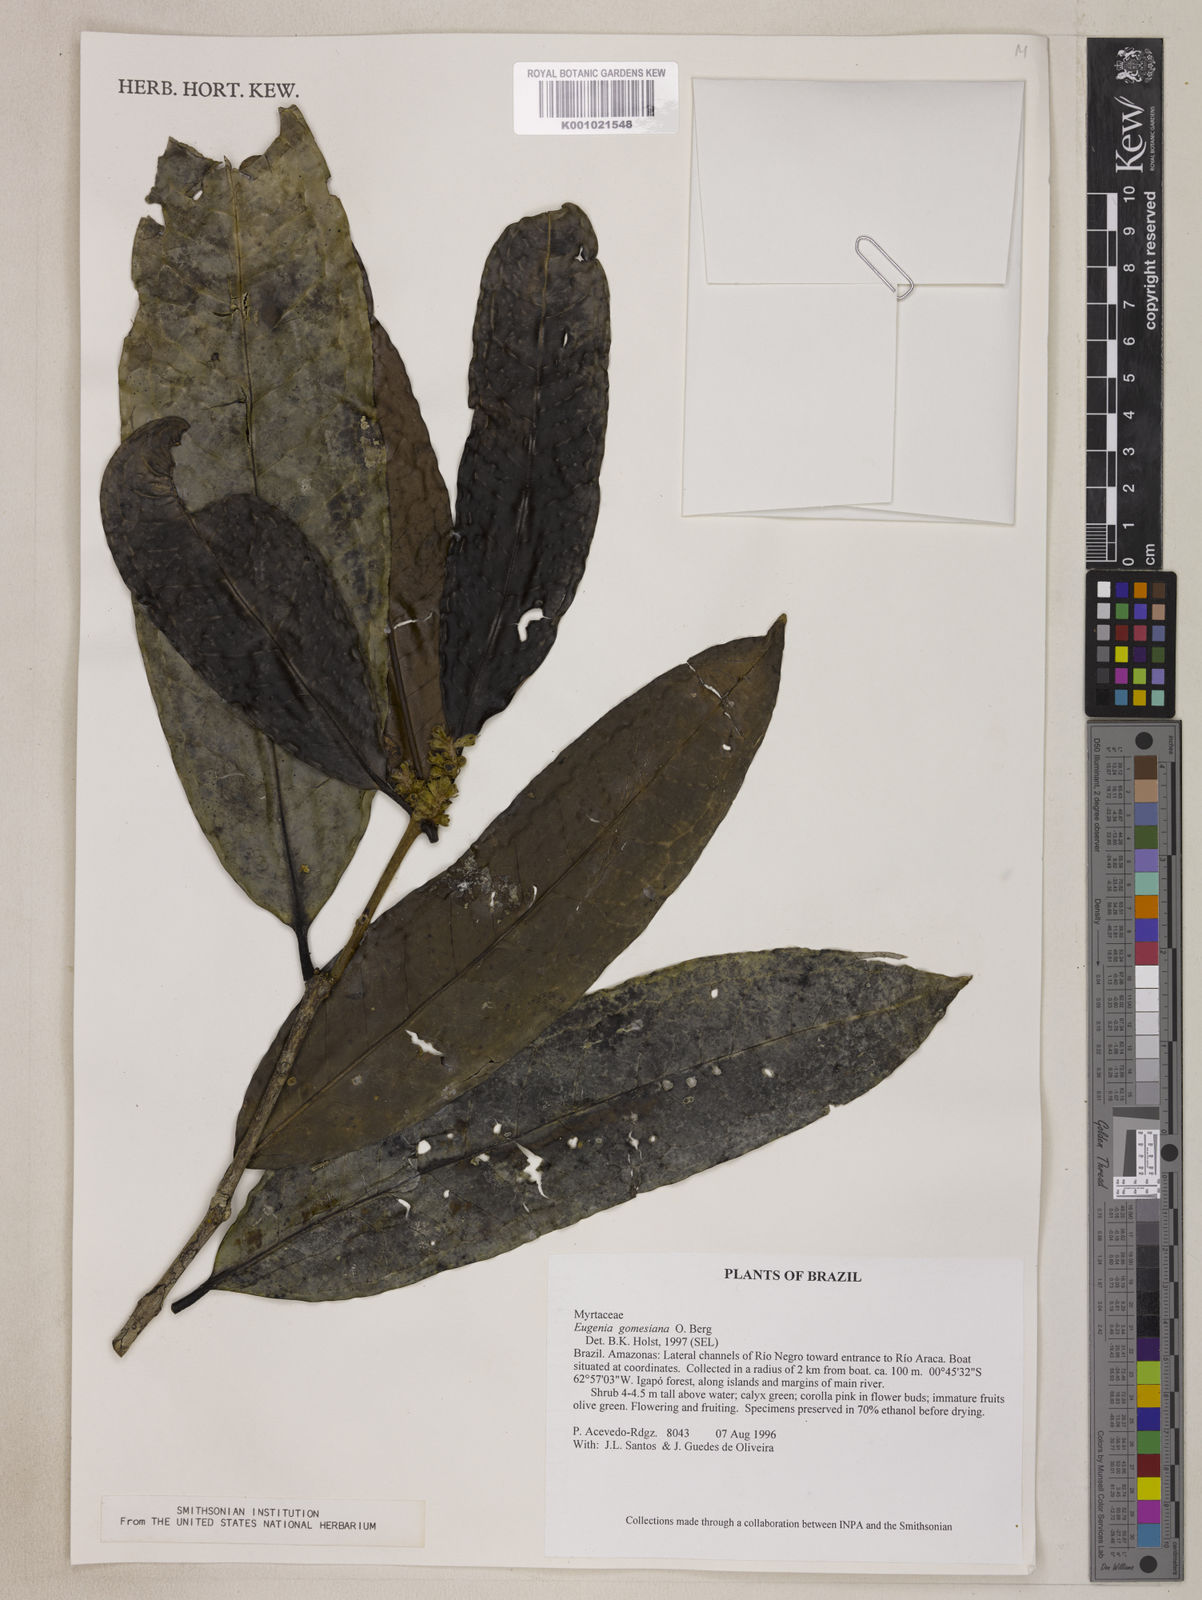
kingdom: Plantae
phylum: Tracheophyta
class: Magnoliopsida
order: Myrtales
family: Myrtaceae
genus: Eugenia
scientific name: Eugenia gomesiana
